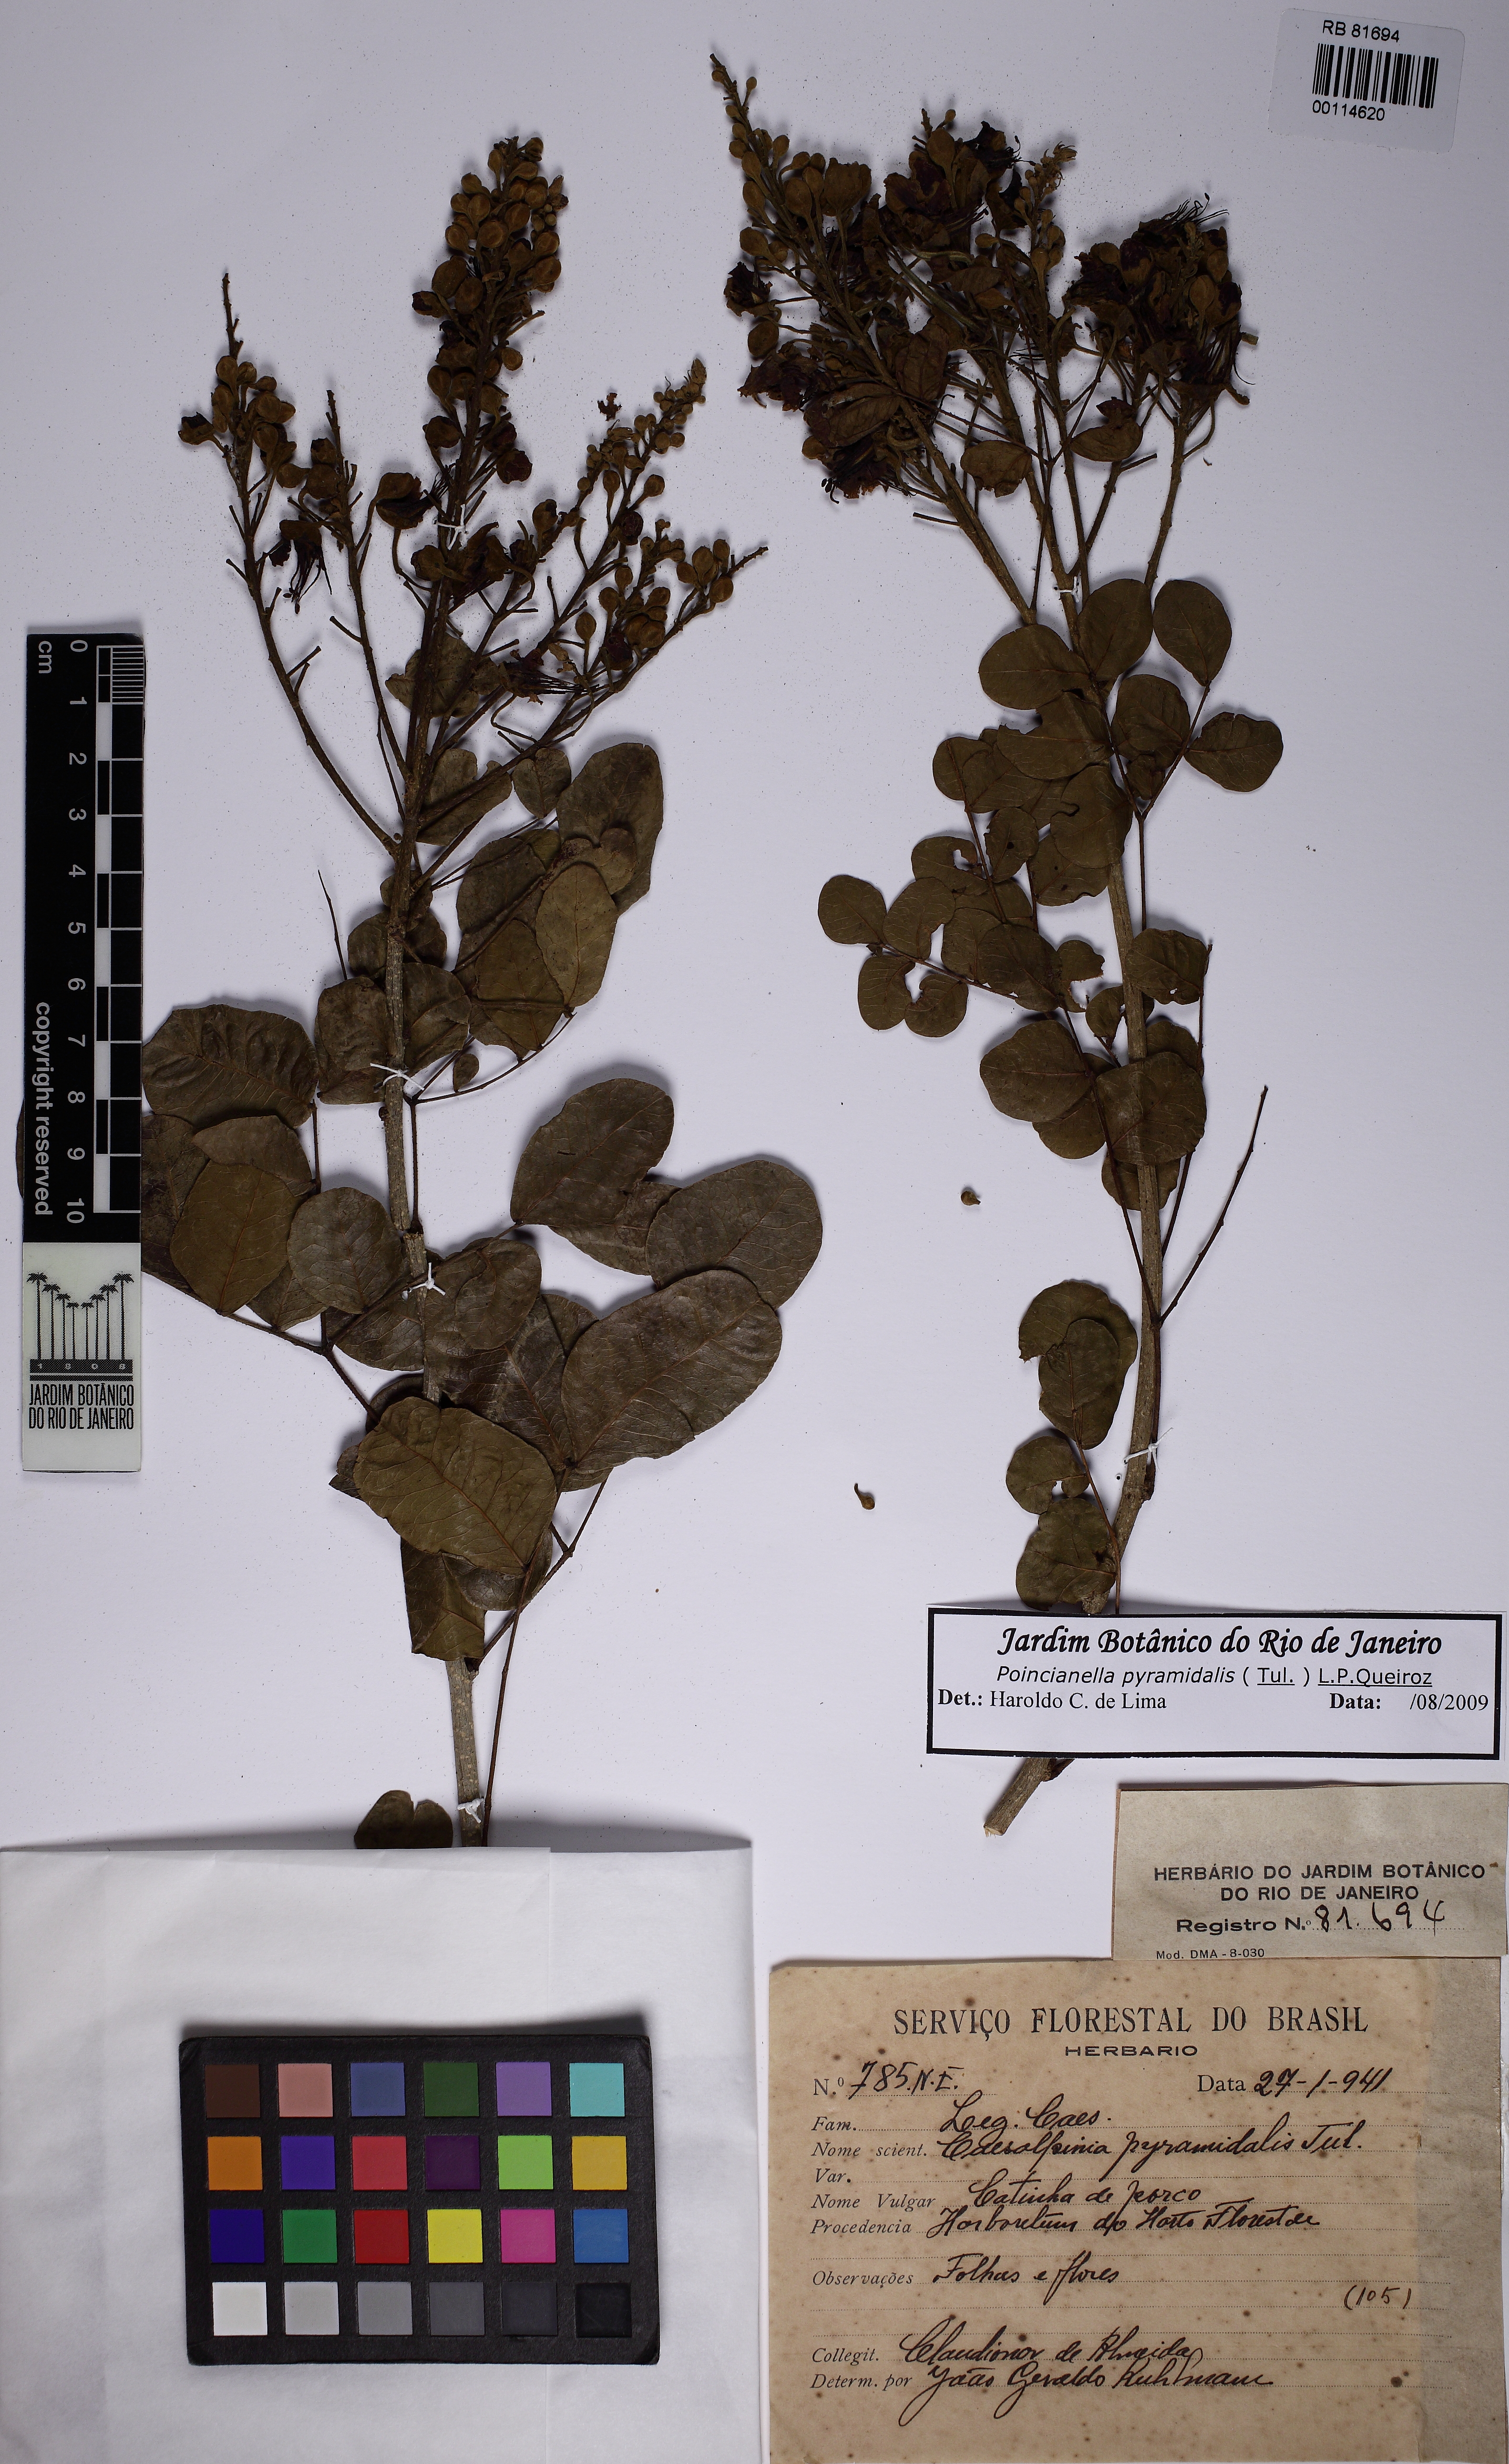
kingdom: Plantae
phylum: Tracheophyta
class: Magnoliopsida
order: Fabales
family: Fabaceae
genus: Cenostigma
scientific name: Cenostigma pyramidale
